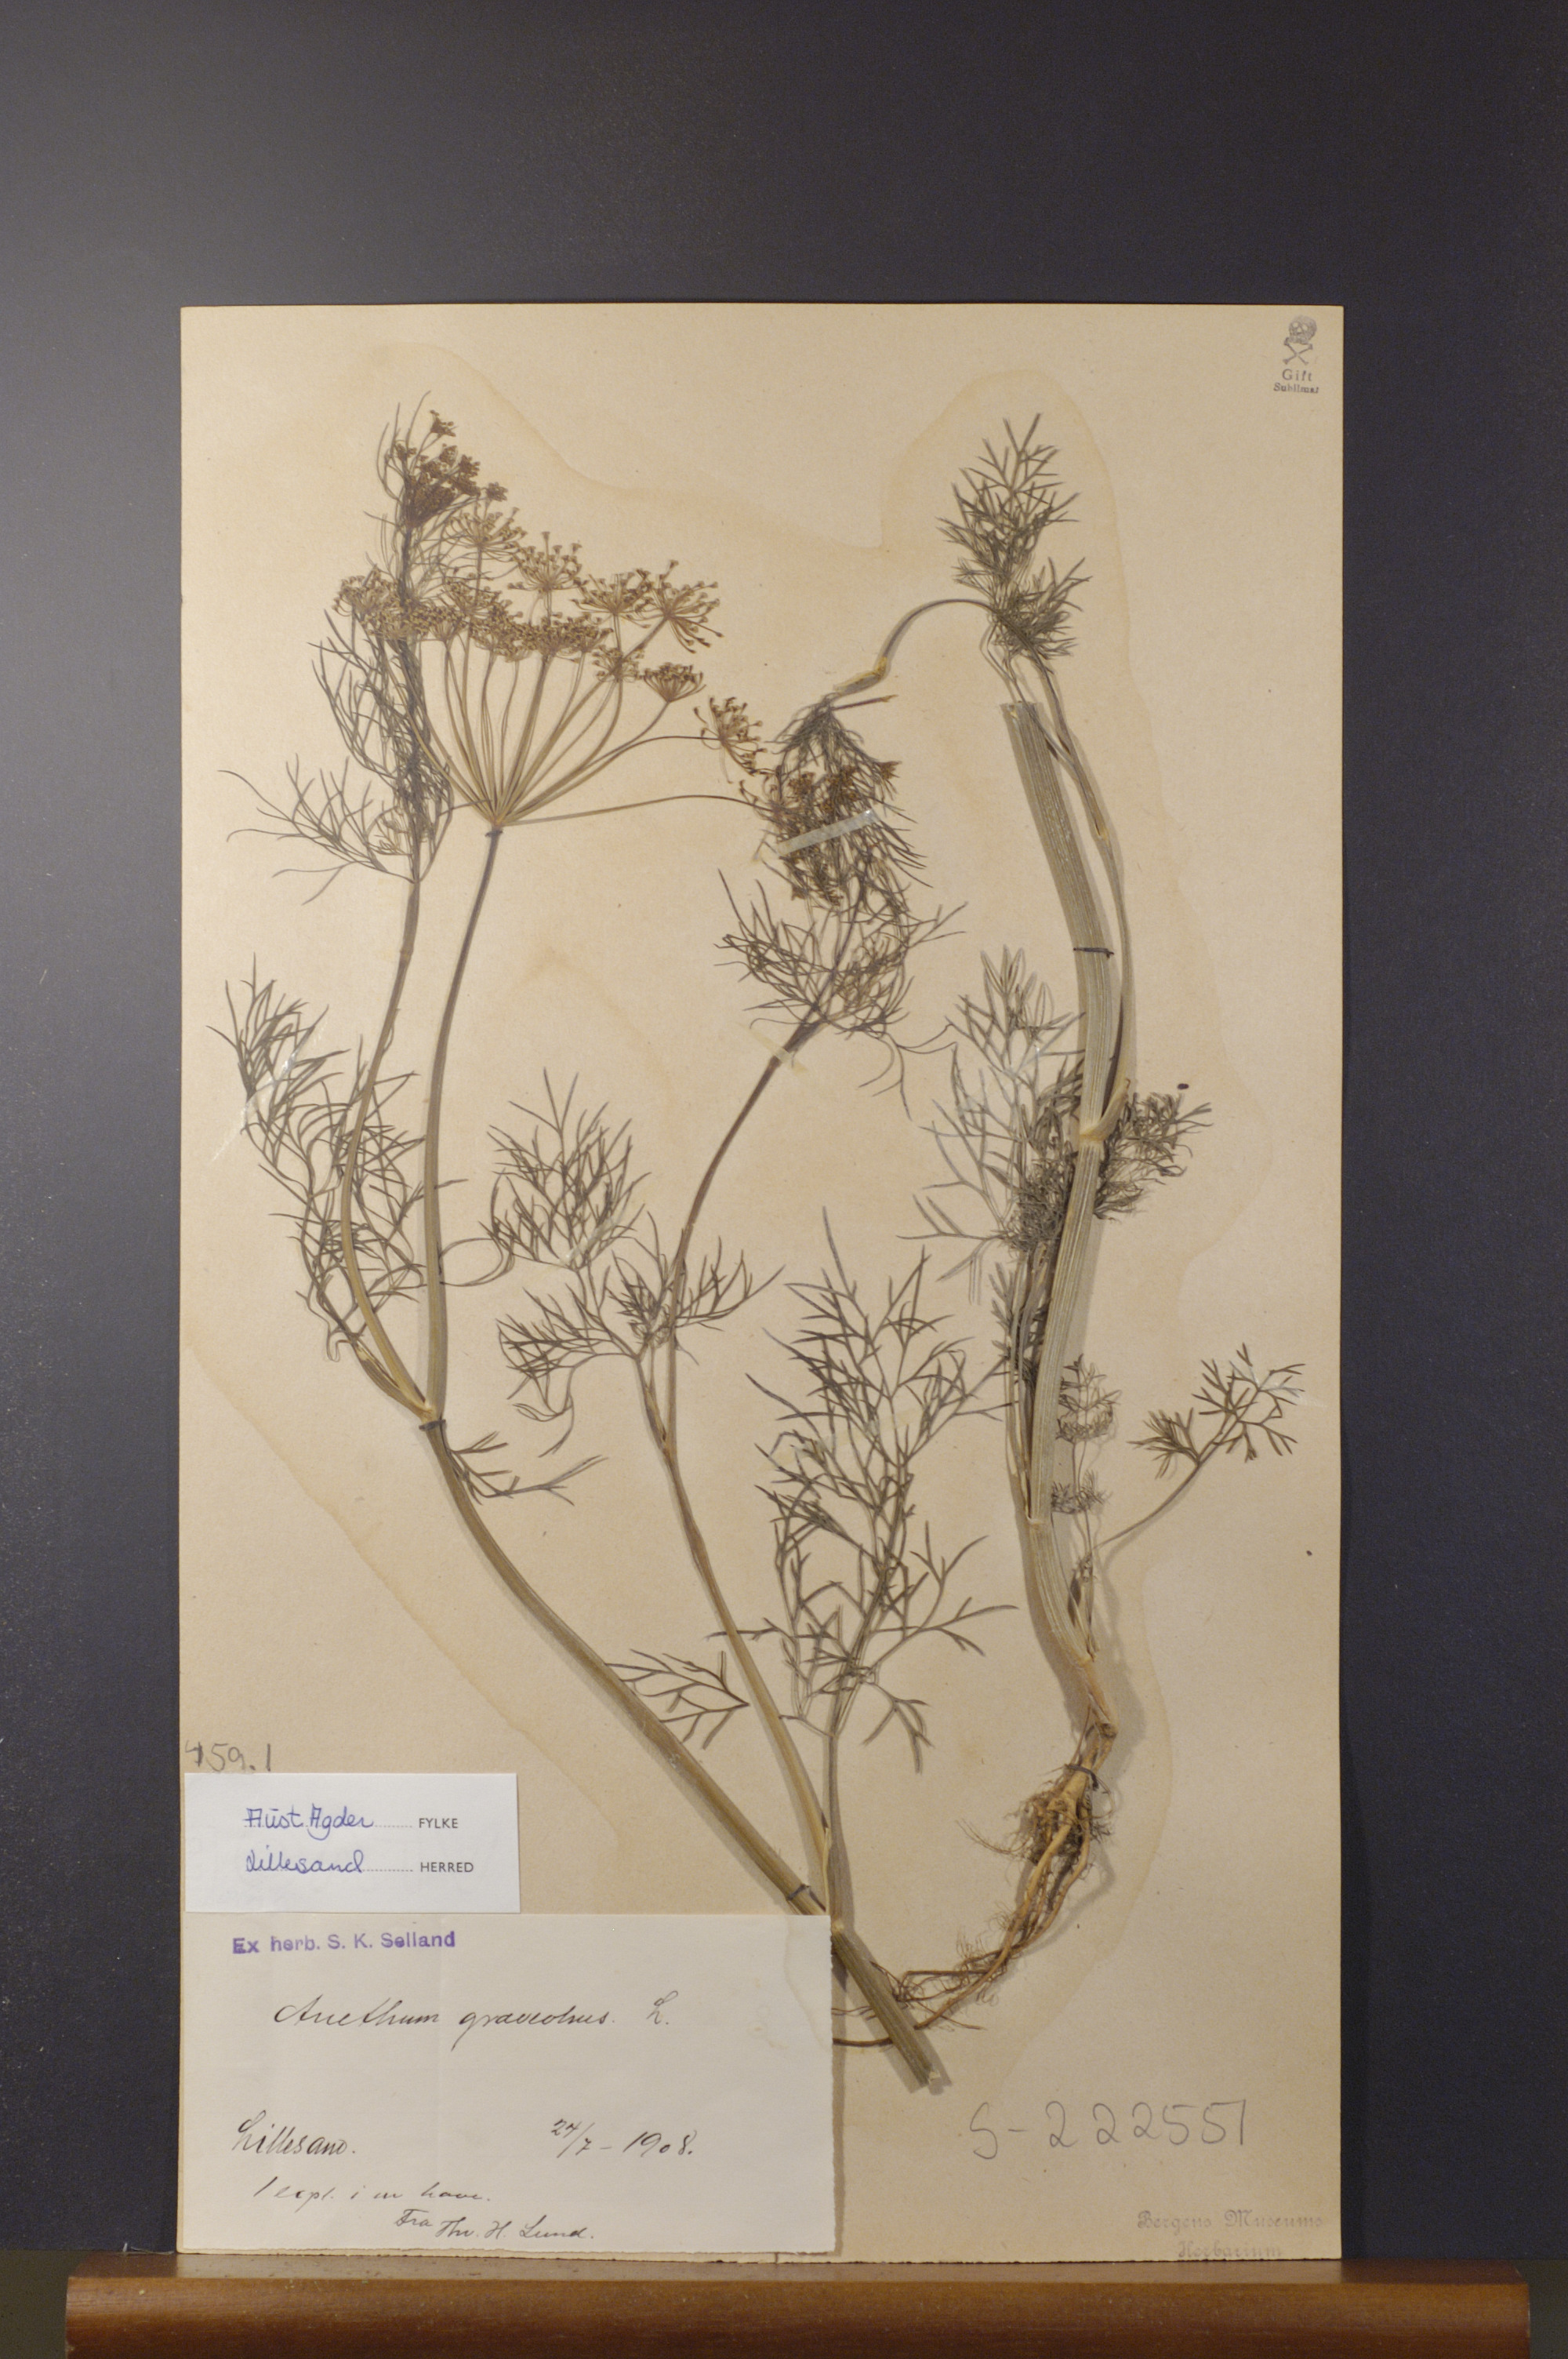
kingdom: Plantae
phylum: Tracheophyta
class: Magnoliopsida
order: Apiales
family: Apiaceae
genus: Anethum
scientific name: Anethum graveolens
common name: Dill
